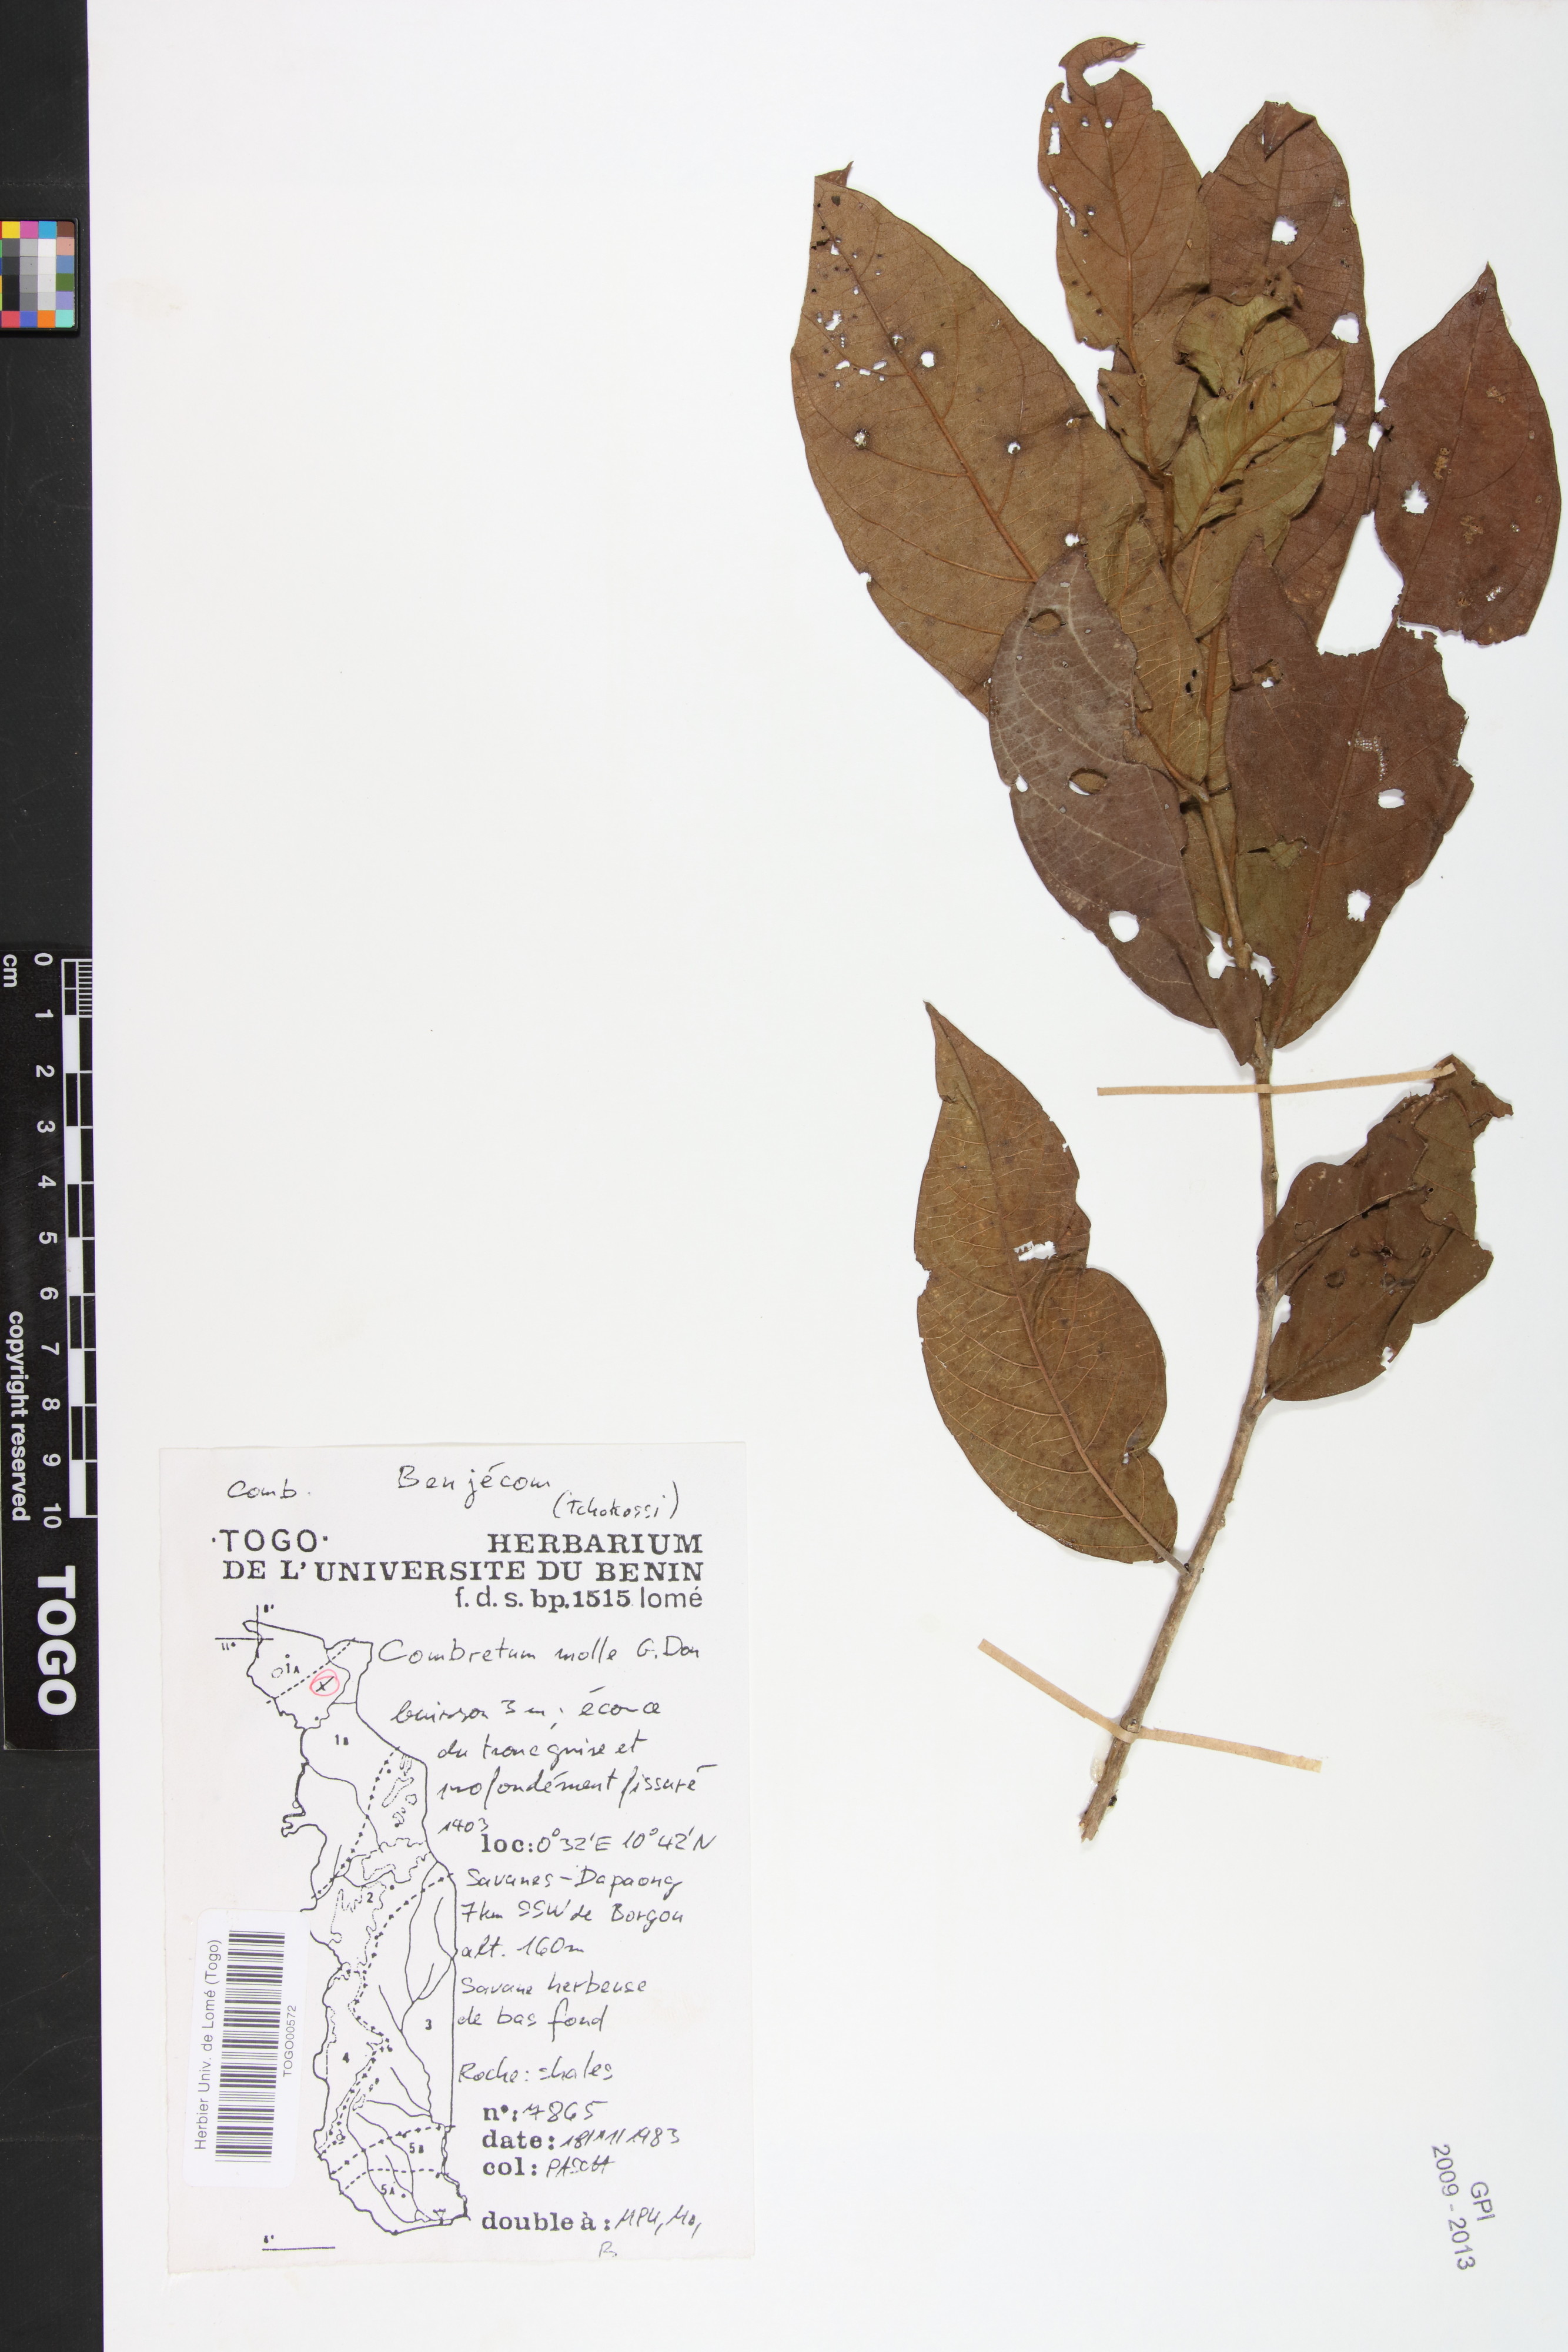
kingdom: Plantae
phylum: Tracheophyta
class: Magnoliopsida
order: Myrtales
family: Combretaceae
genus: Combretum
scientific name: Combretum molle
